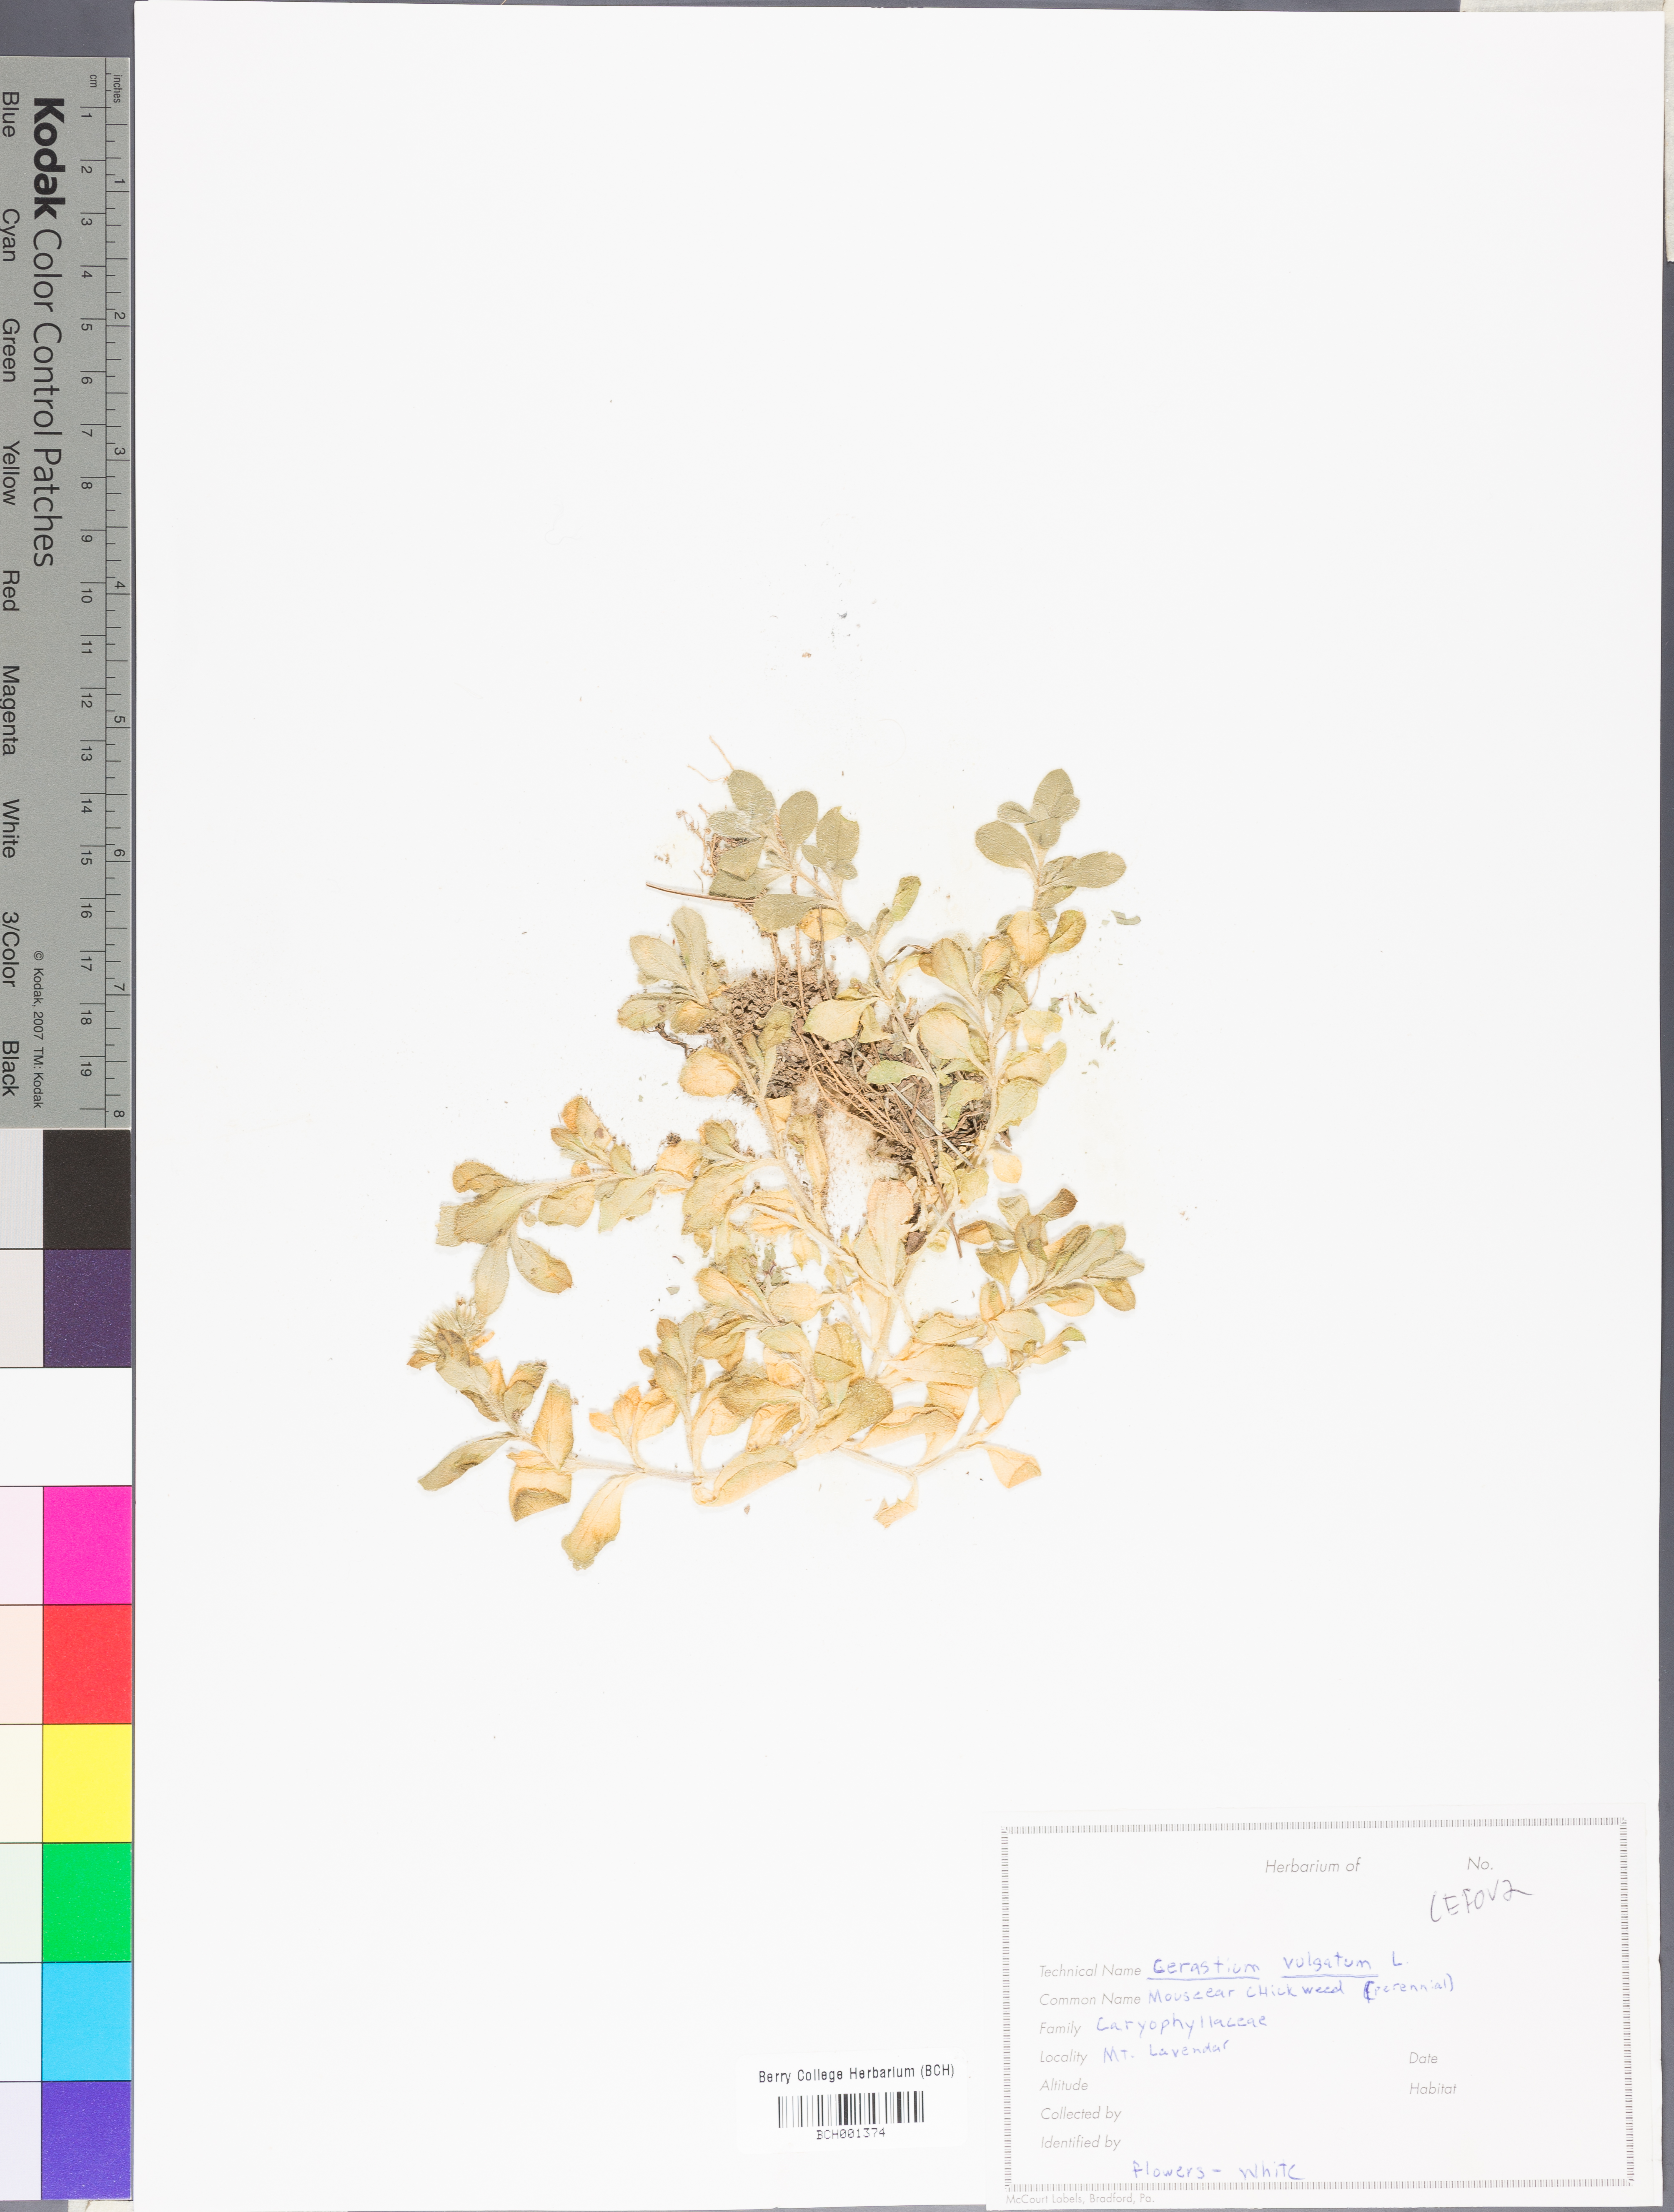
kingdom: Plantae
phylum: Tracheophyta
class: Magnoliopsida
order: Caryophyllales
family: Caryophyllaceae
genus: Cerastium
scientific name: Cerastium holosteoides
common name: Big chickweed
